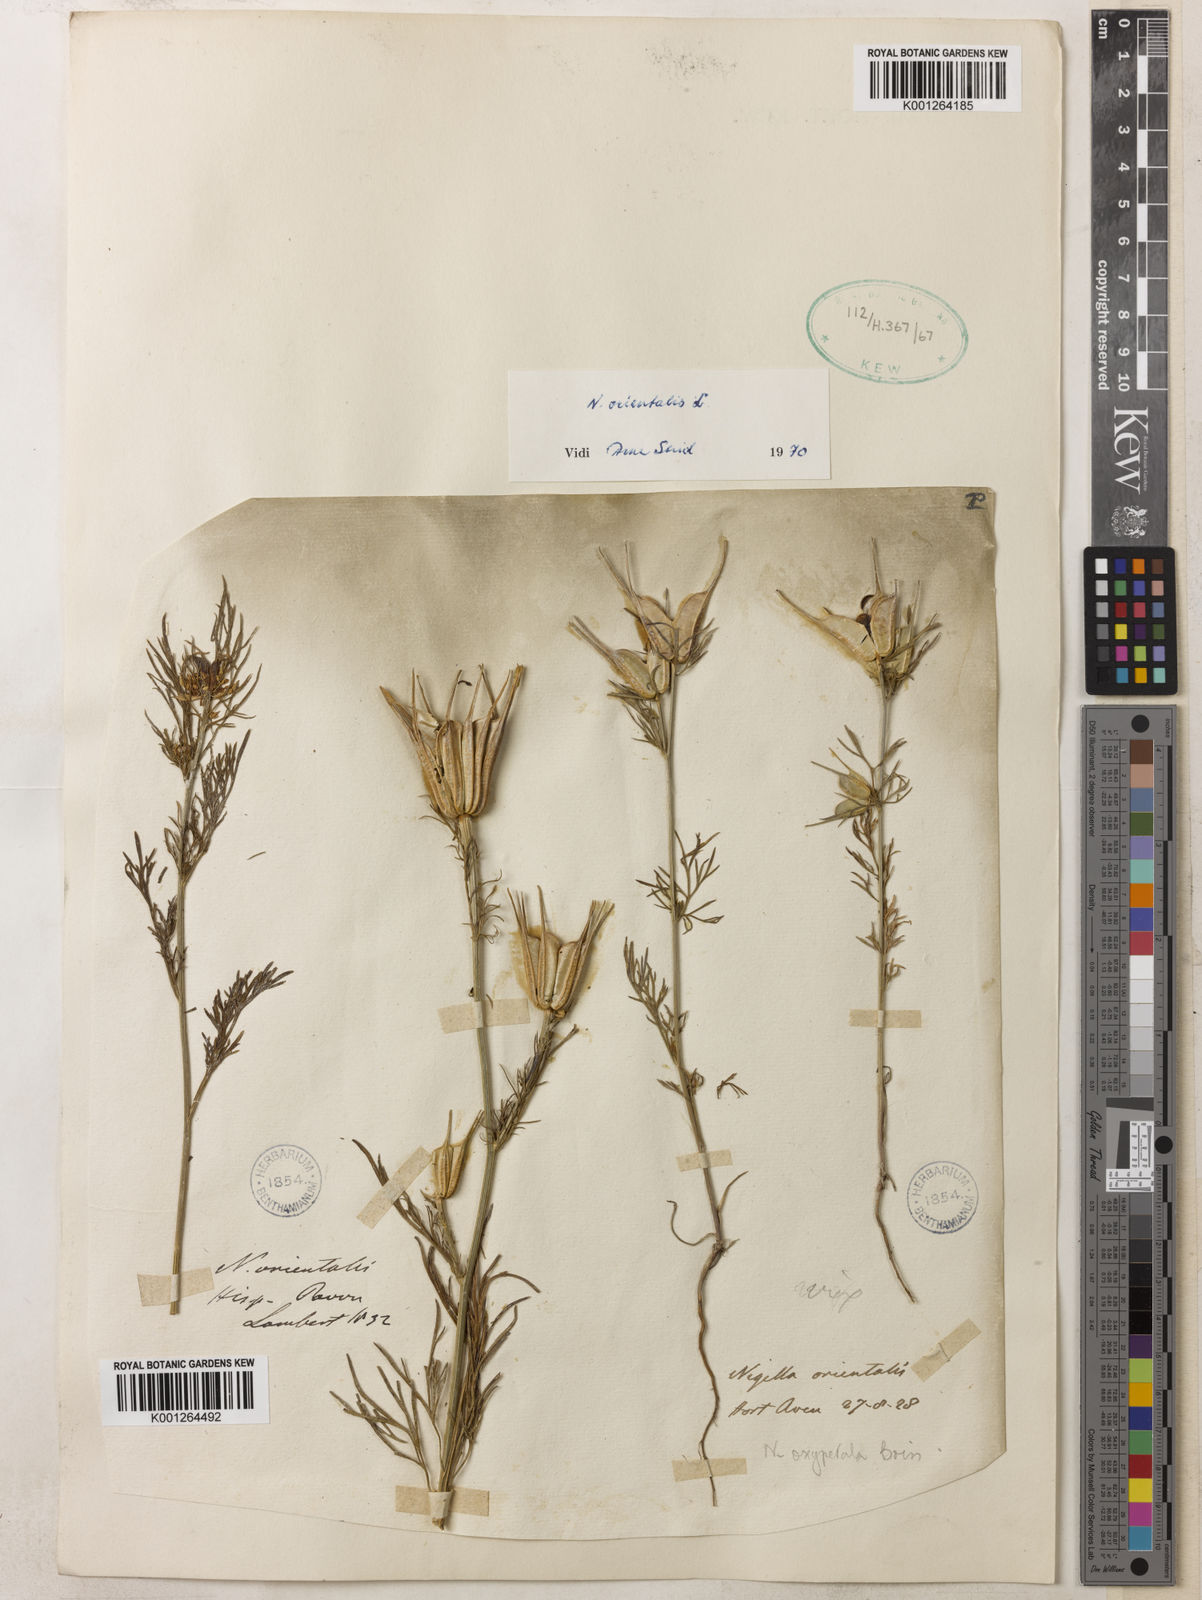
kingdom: Plantae
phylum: Tracheophyta
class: Magnoliopsida
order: Ranunculales
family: Ranunculaceae
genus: Nigella
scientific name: Nigella orientalis
